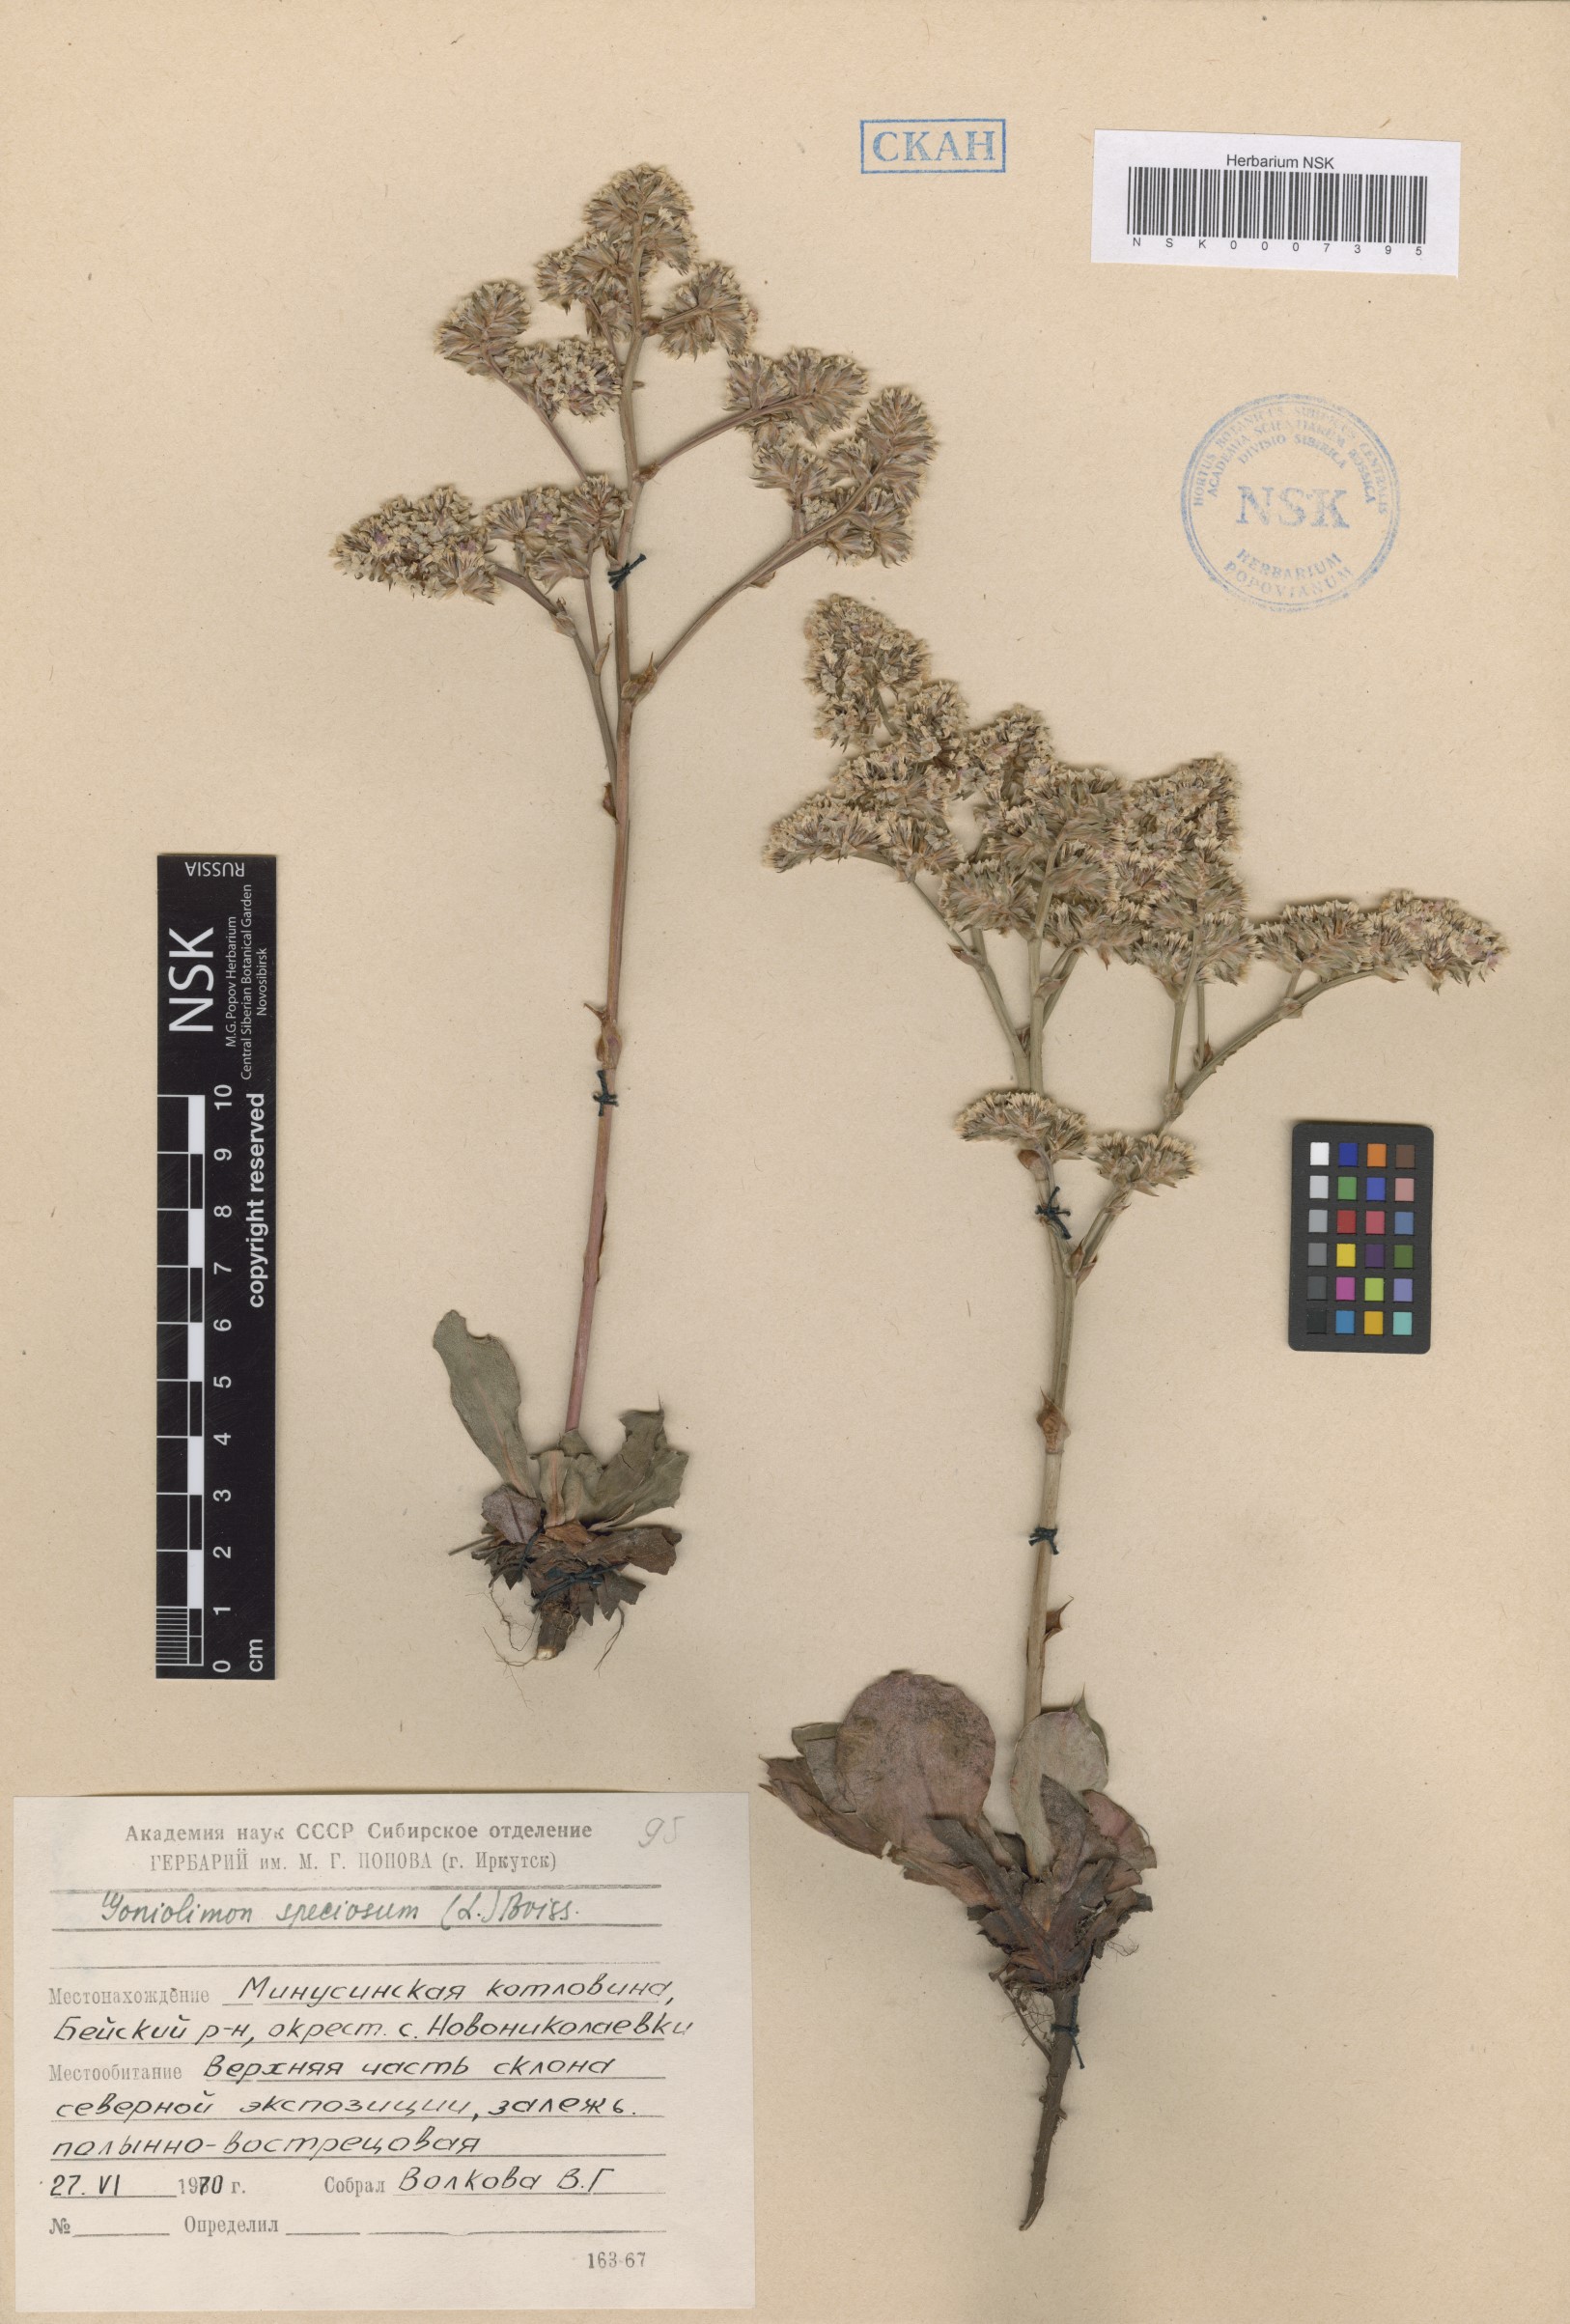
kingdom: Plantae
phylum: Tracheophyta
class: Magnoliopsida
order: Caryophyllales
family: Plumbaginaceae
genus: Goniolimon
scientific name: Goniolimon speciosum
